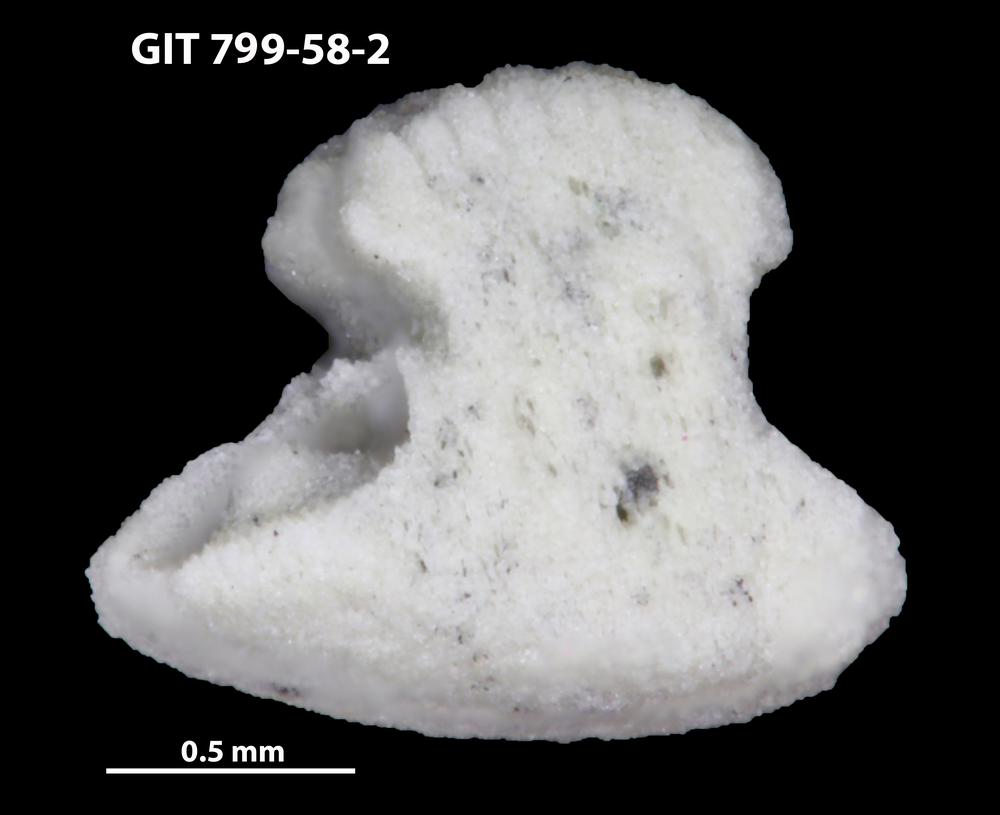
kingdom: Animalia
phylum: Echinodermata
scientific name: Echinodermata
